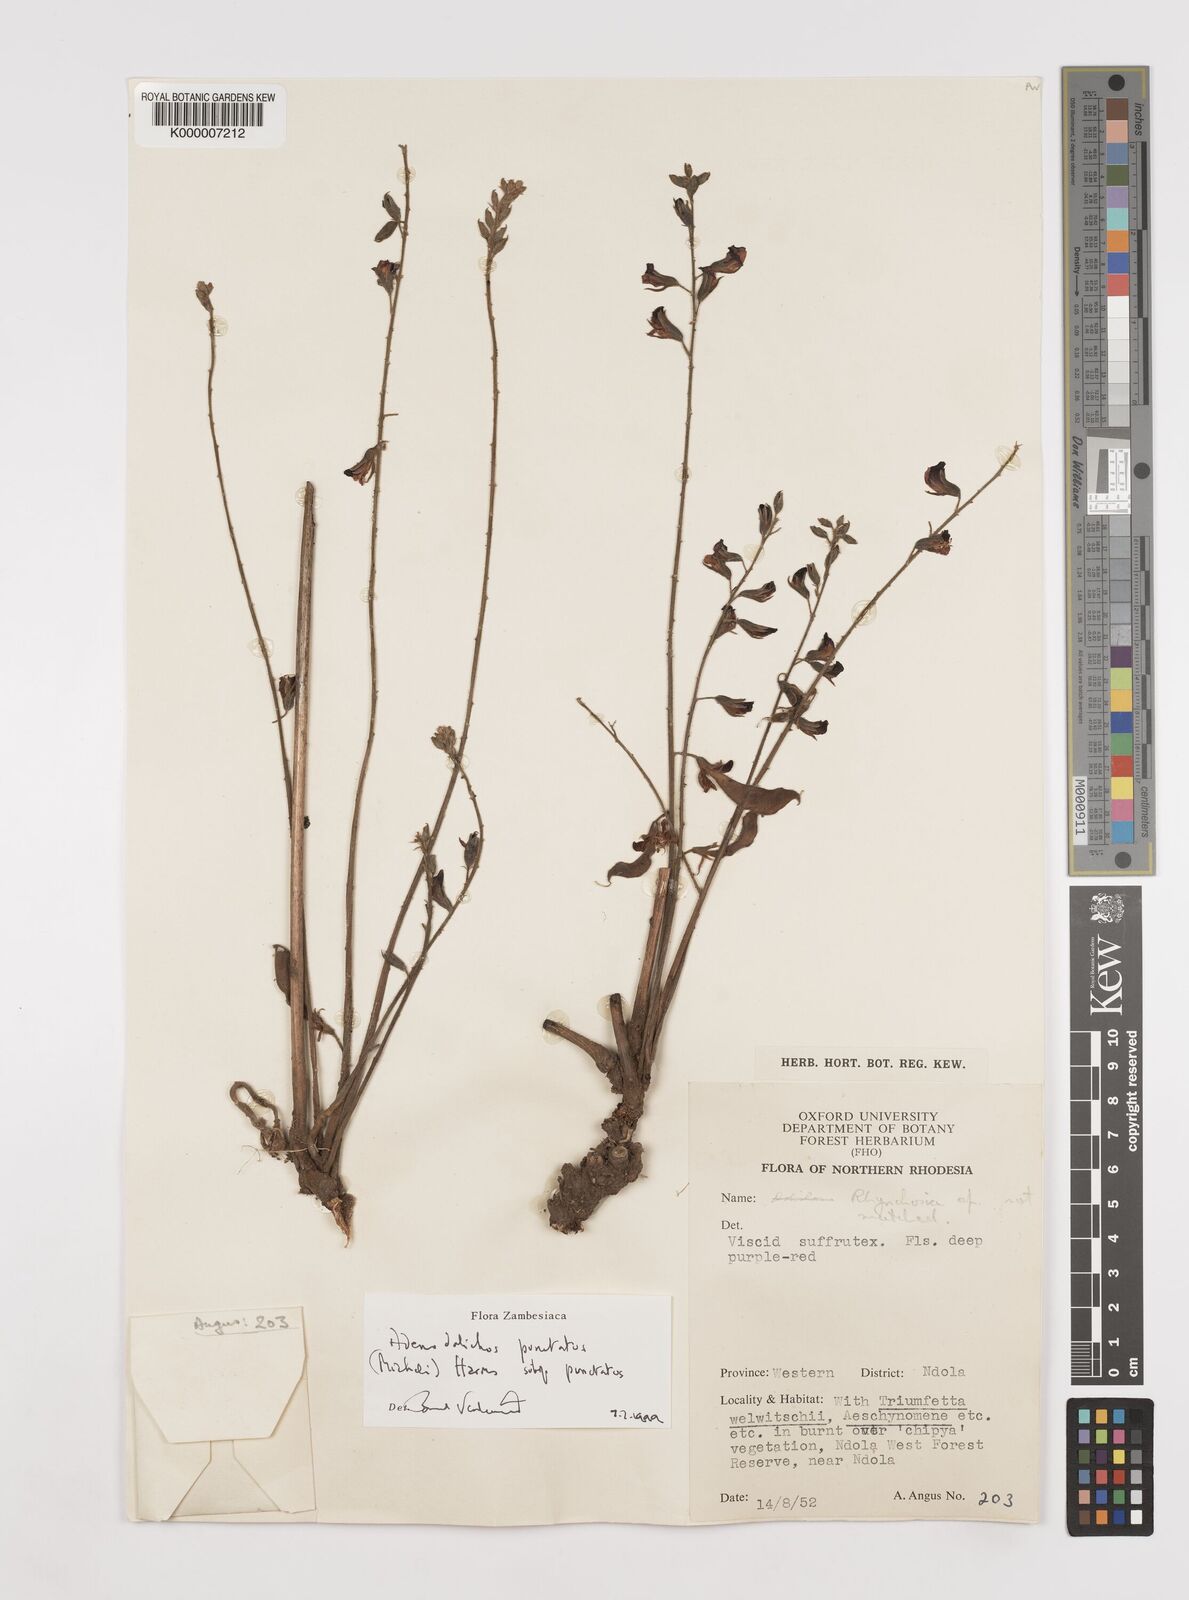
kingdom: Plantae
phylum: Tracheophyta
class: Magnoliopsida
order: Fabales
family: Fabaceae
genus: Adenodolichos
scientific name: Adenodolichos punctatus
